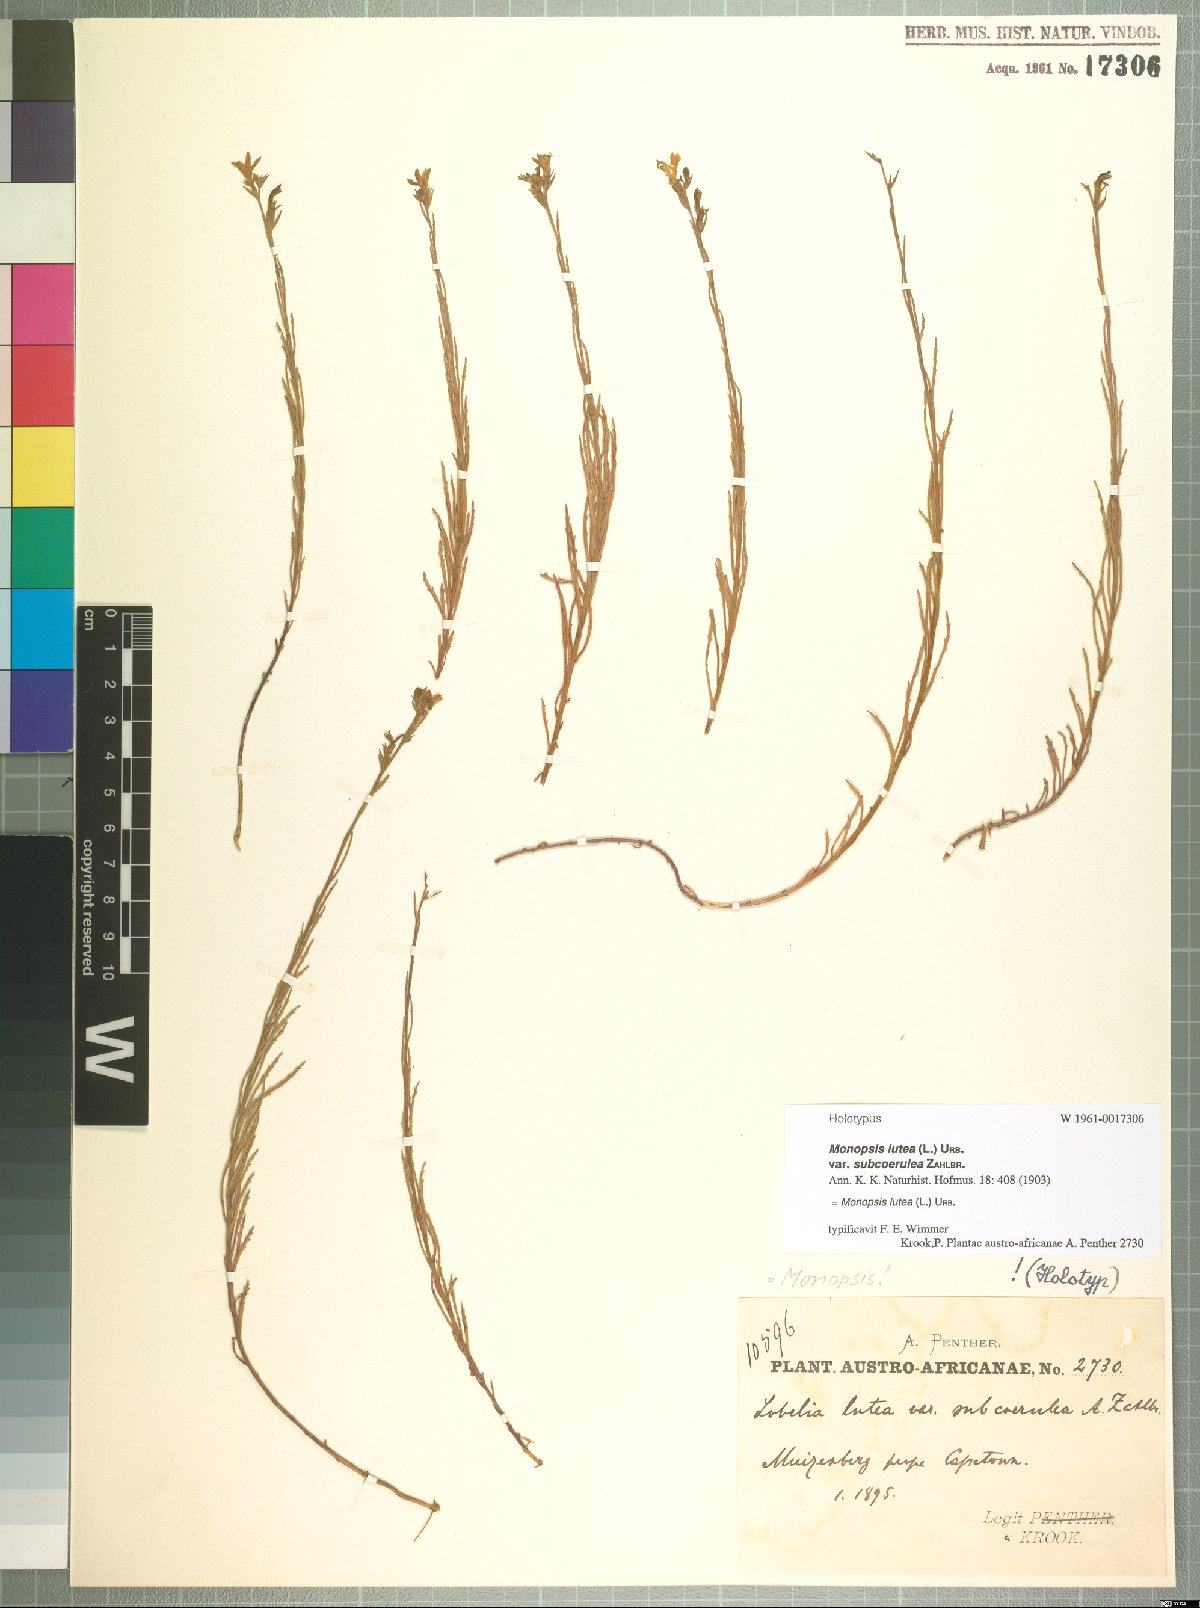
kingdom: Plantae
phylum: Tracheophyta
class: Magnoliopsida
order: Asterales
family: Campanulaceae
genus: Monopsis
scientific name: Monopsis lutea
